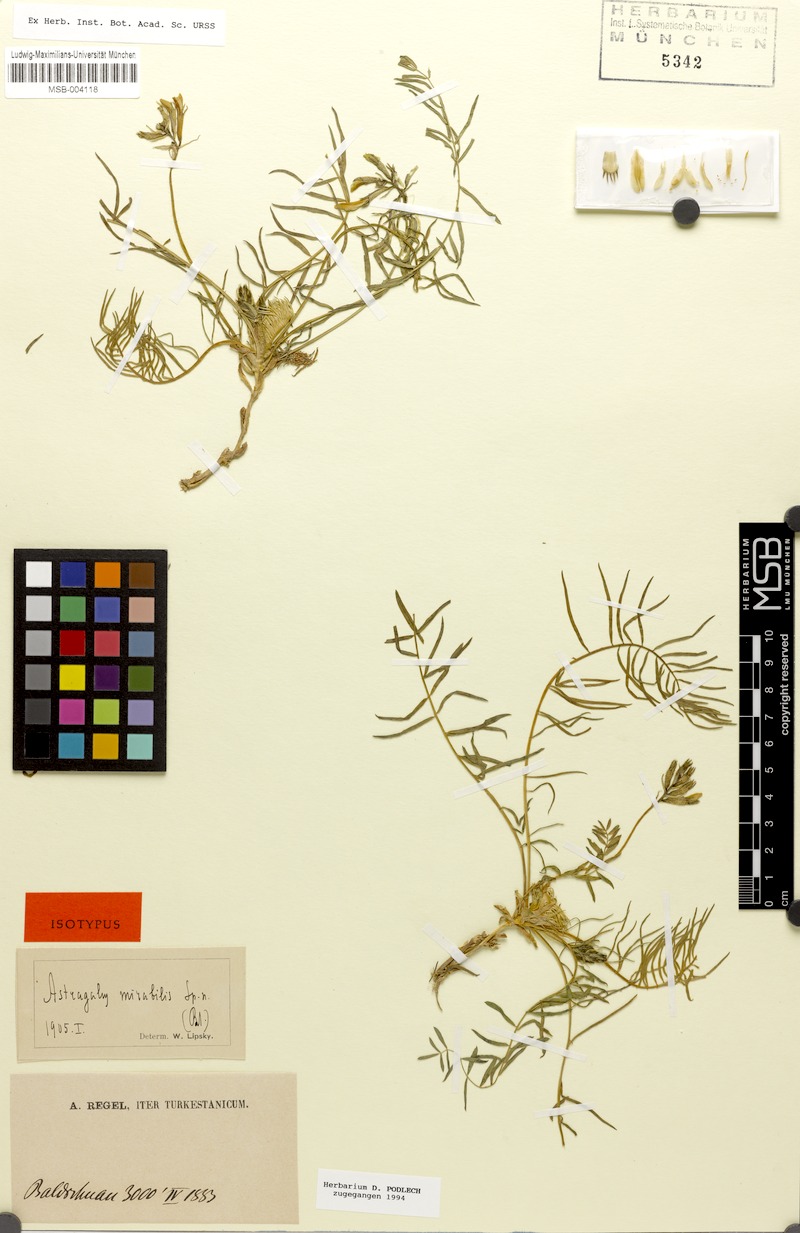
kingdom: Plantae
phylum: Tracheophyta
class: Magnoliopsida
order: Fabales
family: Fabaceae
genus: Astragalus
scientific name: Astragalus mirabilis
